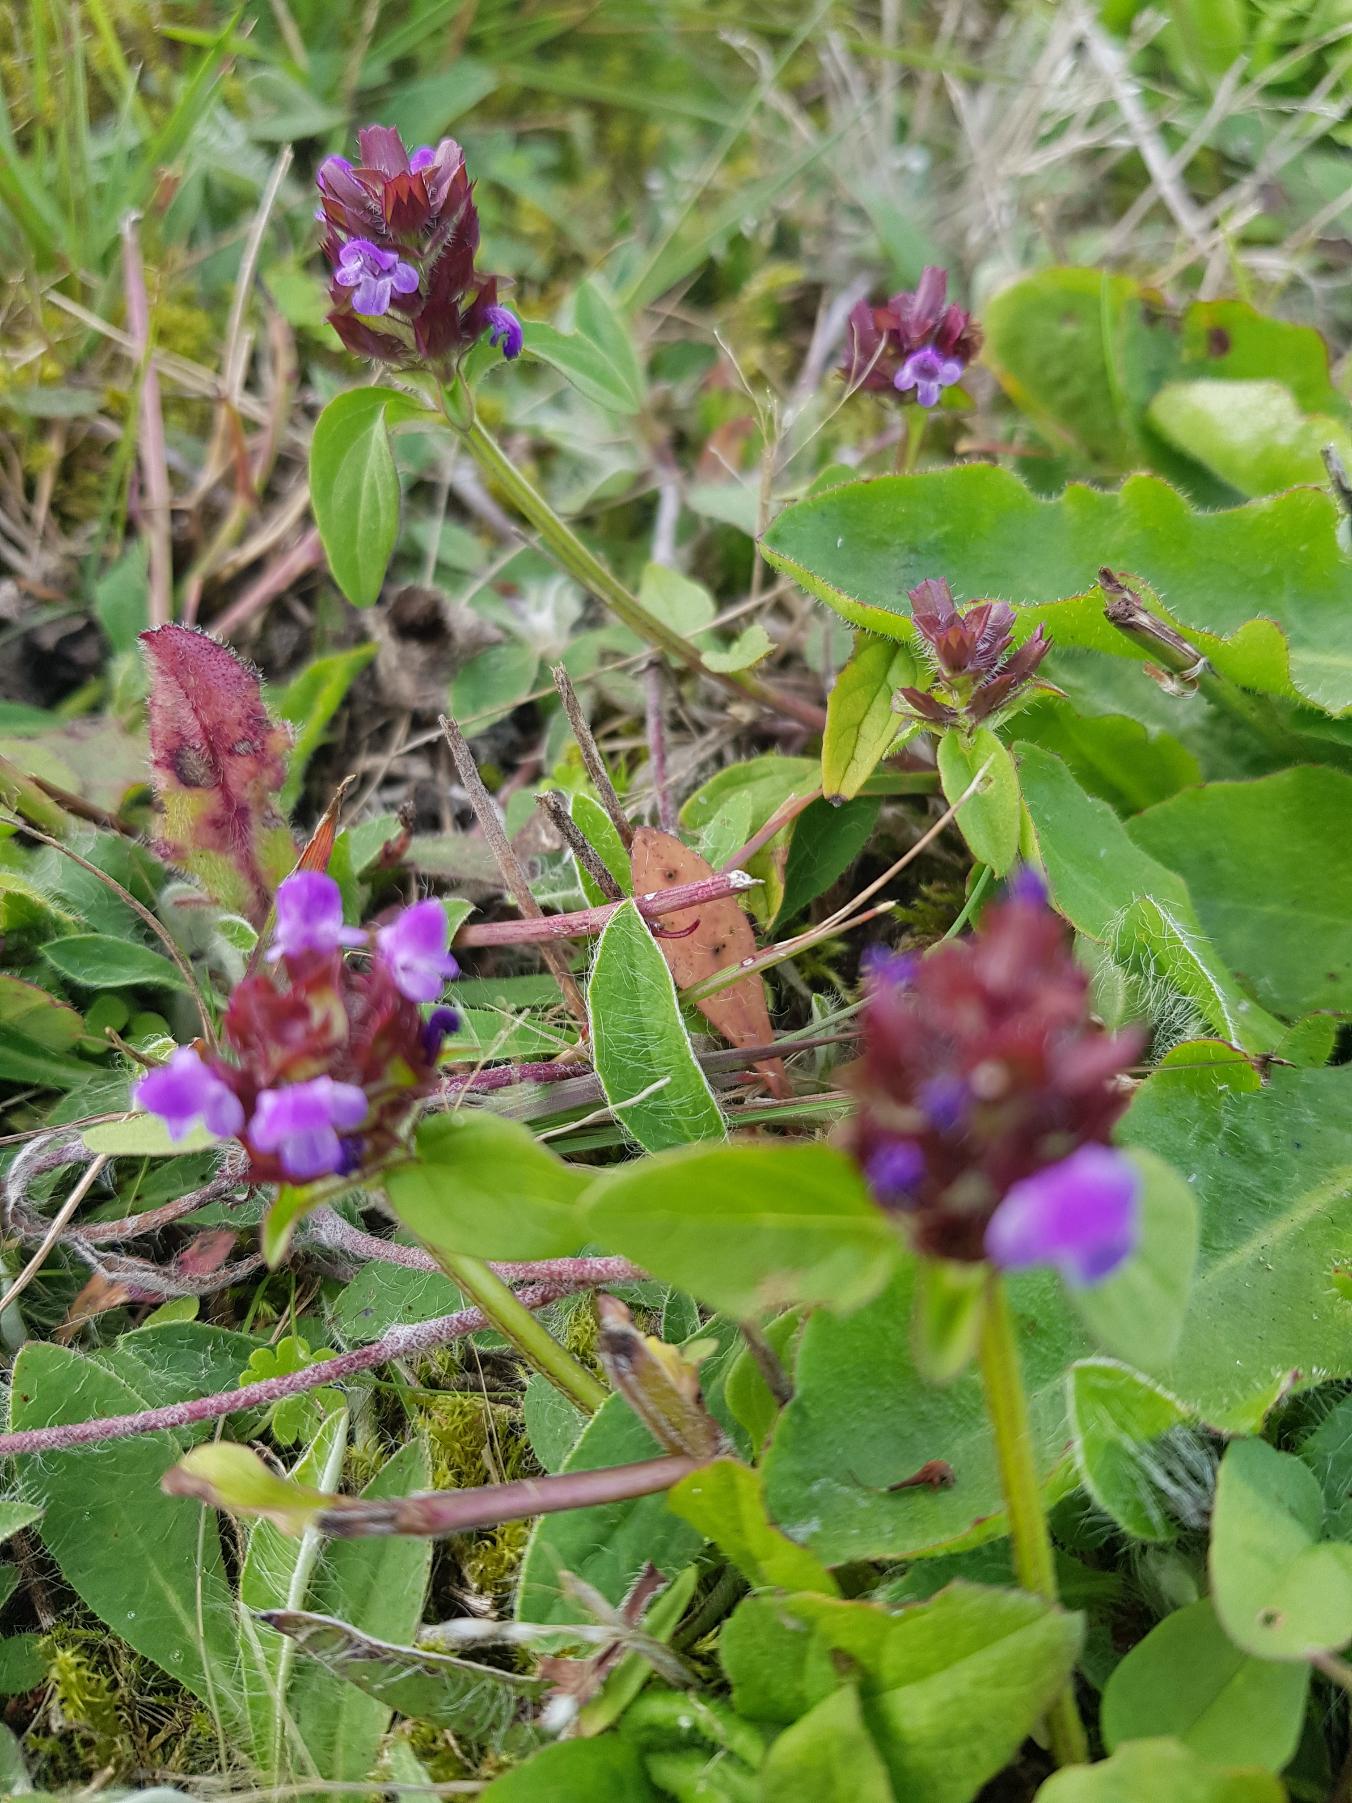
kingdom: Plantae
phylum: Tracheophyta
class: Magnoliopsida
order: Lamiales
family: Lamiaceae
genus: Prunella
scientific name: Prunella vulgaris
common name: Almindelig brunelle
